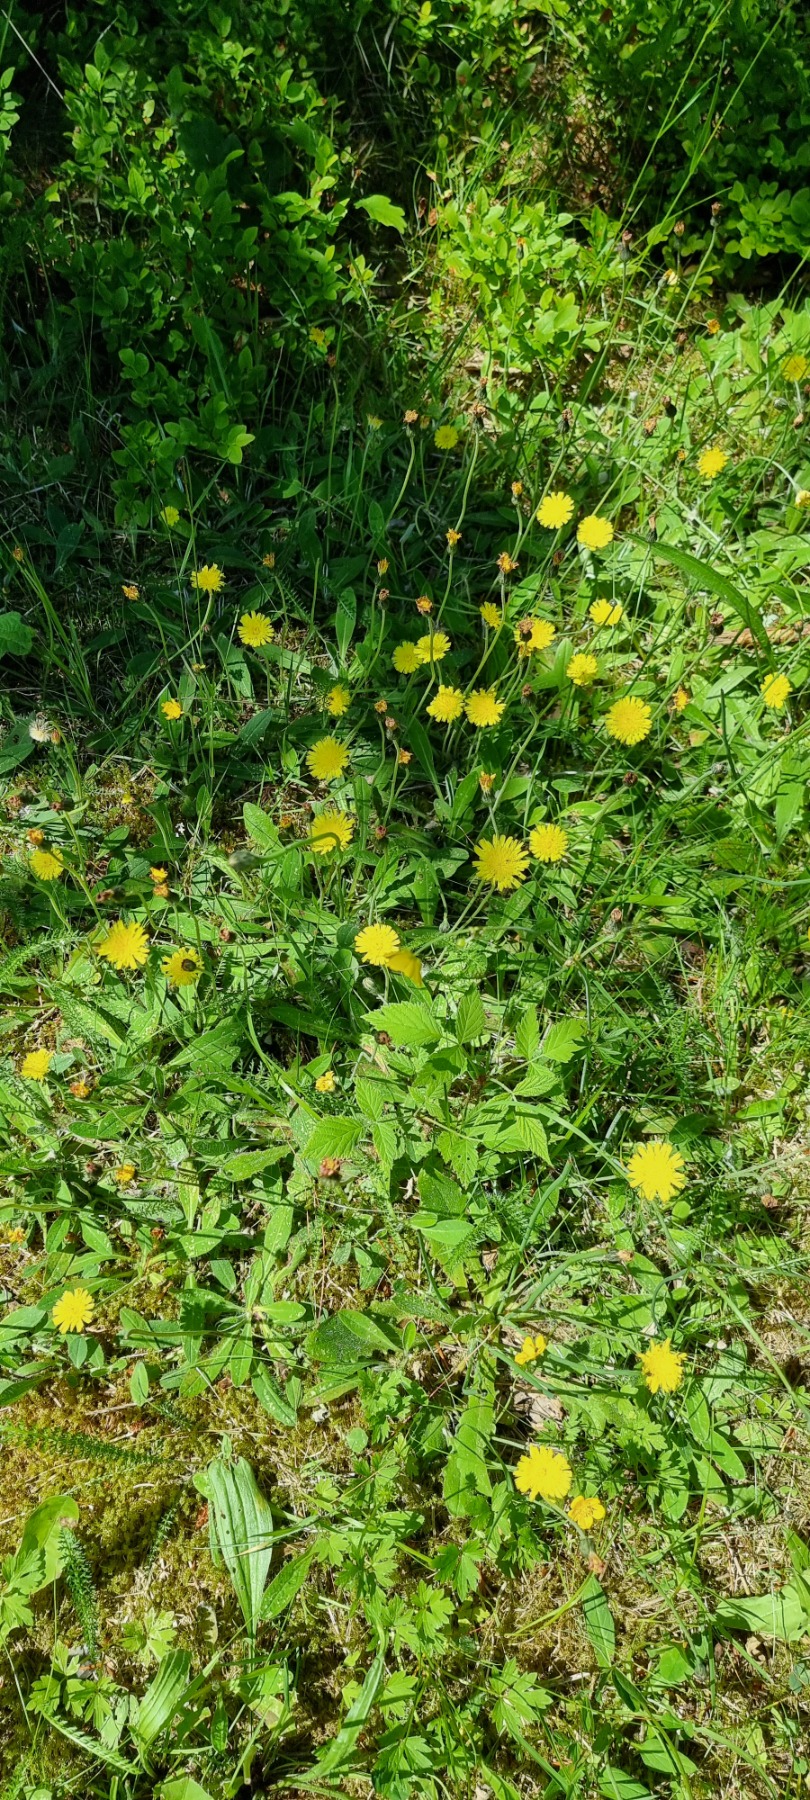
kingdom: Plantae
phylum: Tracheophyta
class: Magnoliopsida
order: Asterales
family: Asteraceae
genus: Pilosella
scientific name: Pilosella officinarum
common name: Håret høgeurt
